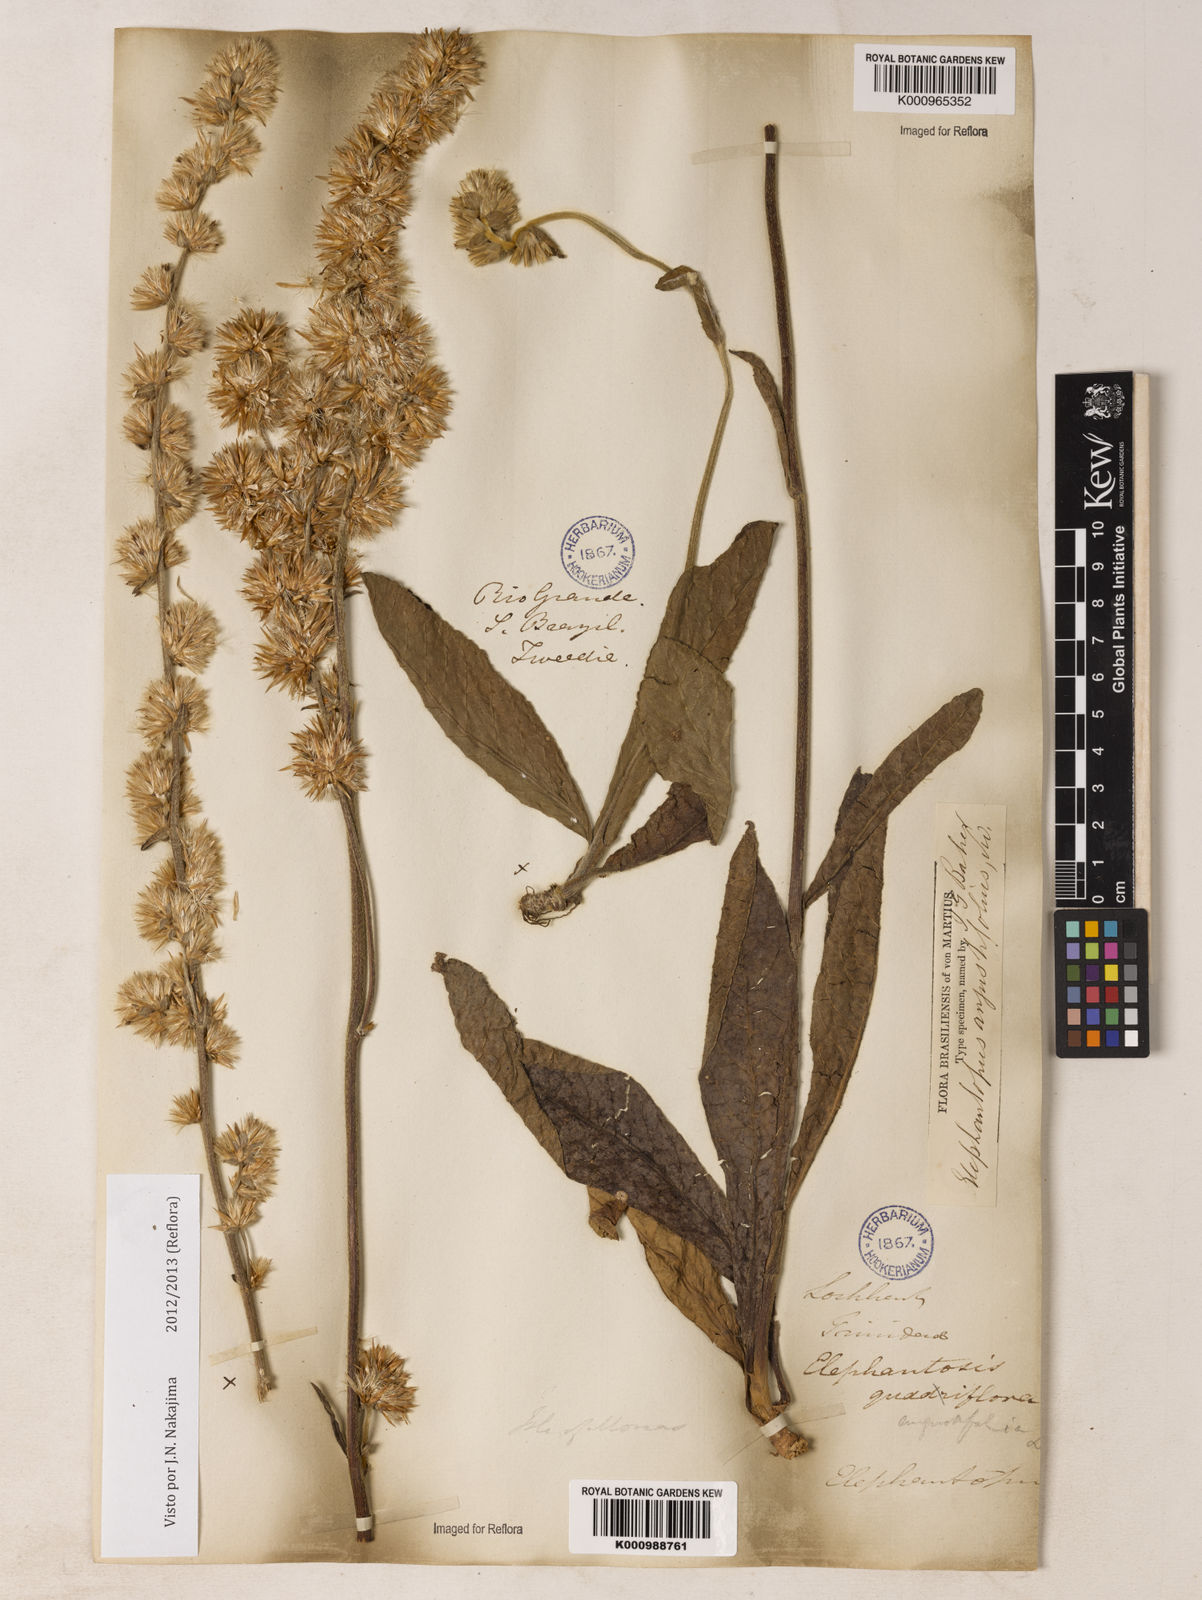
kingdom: Plantae
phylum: Tracheophyta
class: Magnoliopsida
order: Asterales
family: Asteraceae
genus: Orthopappus
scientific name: Orthopappus angustifolius
